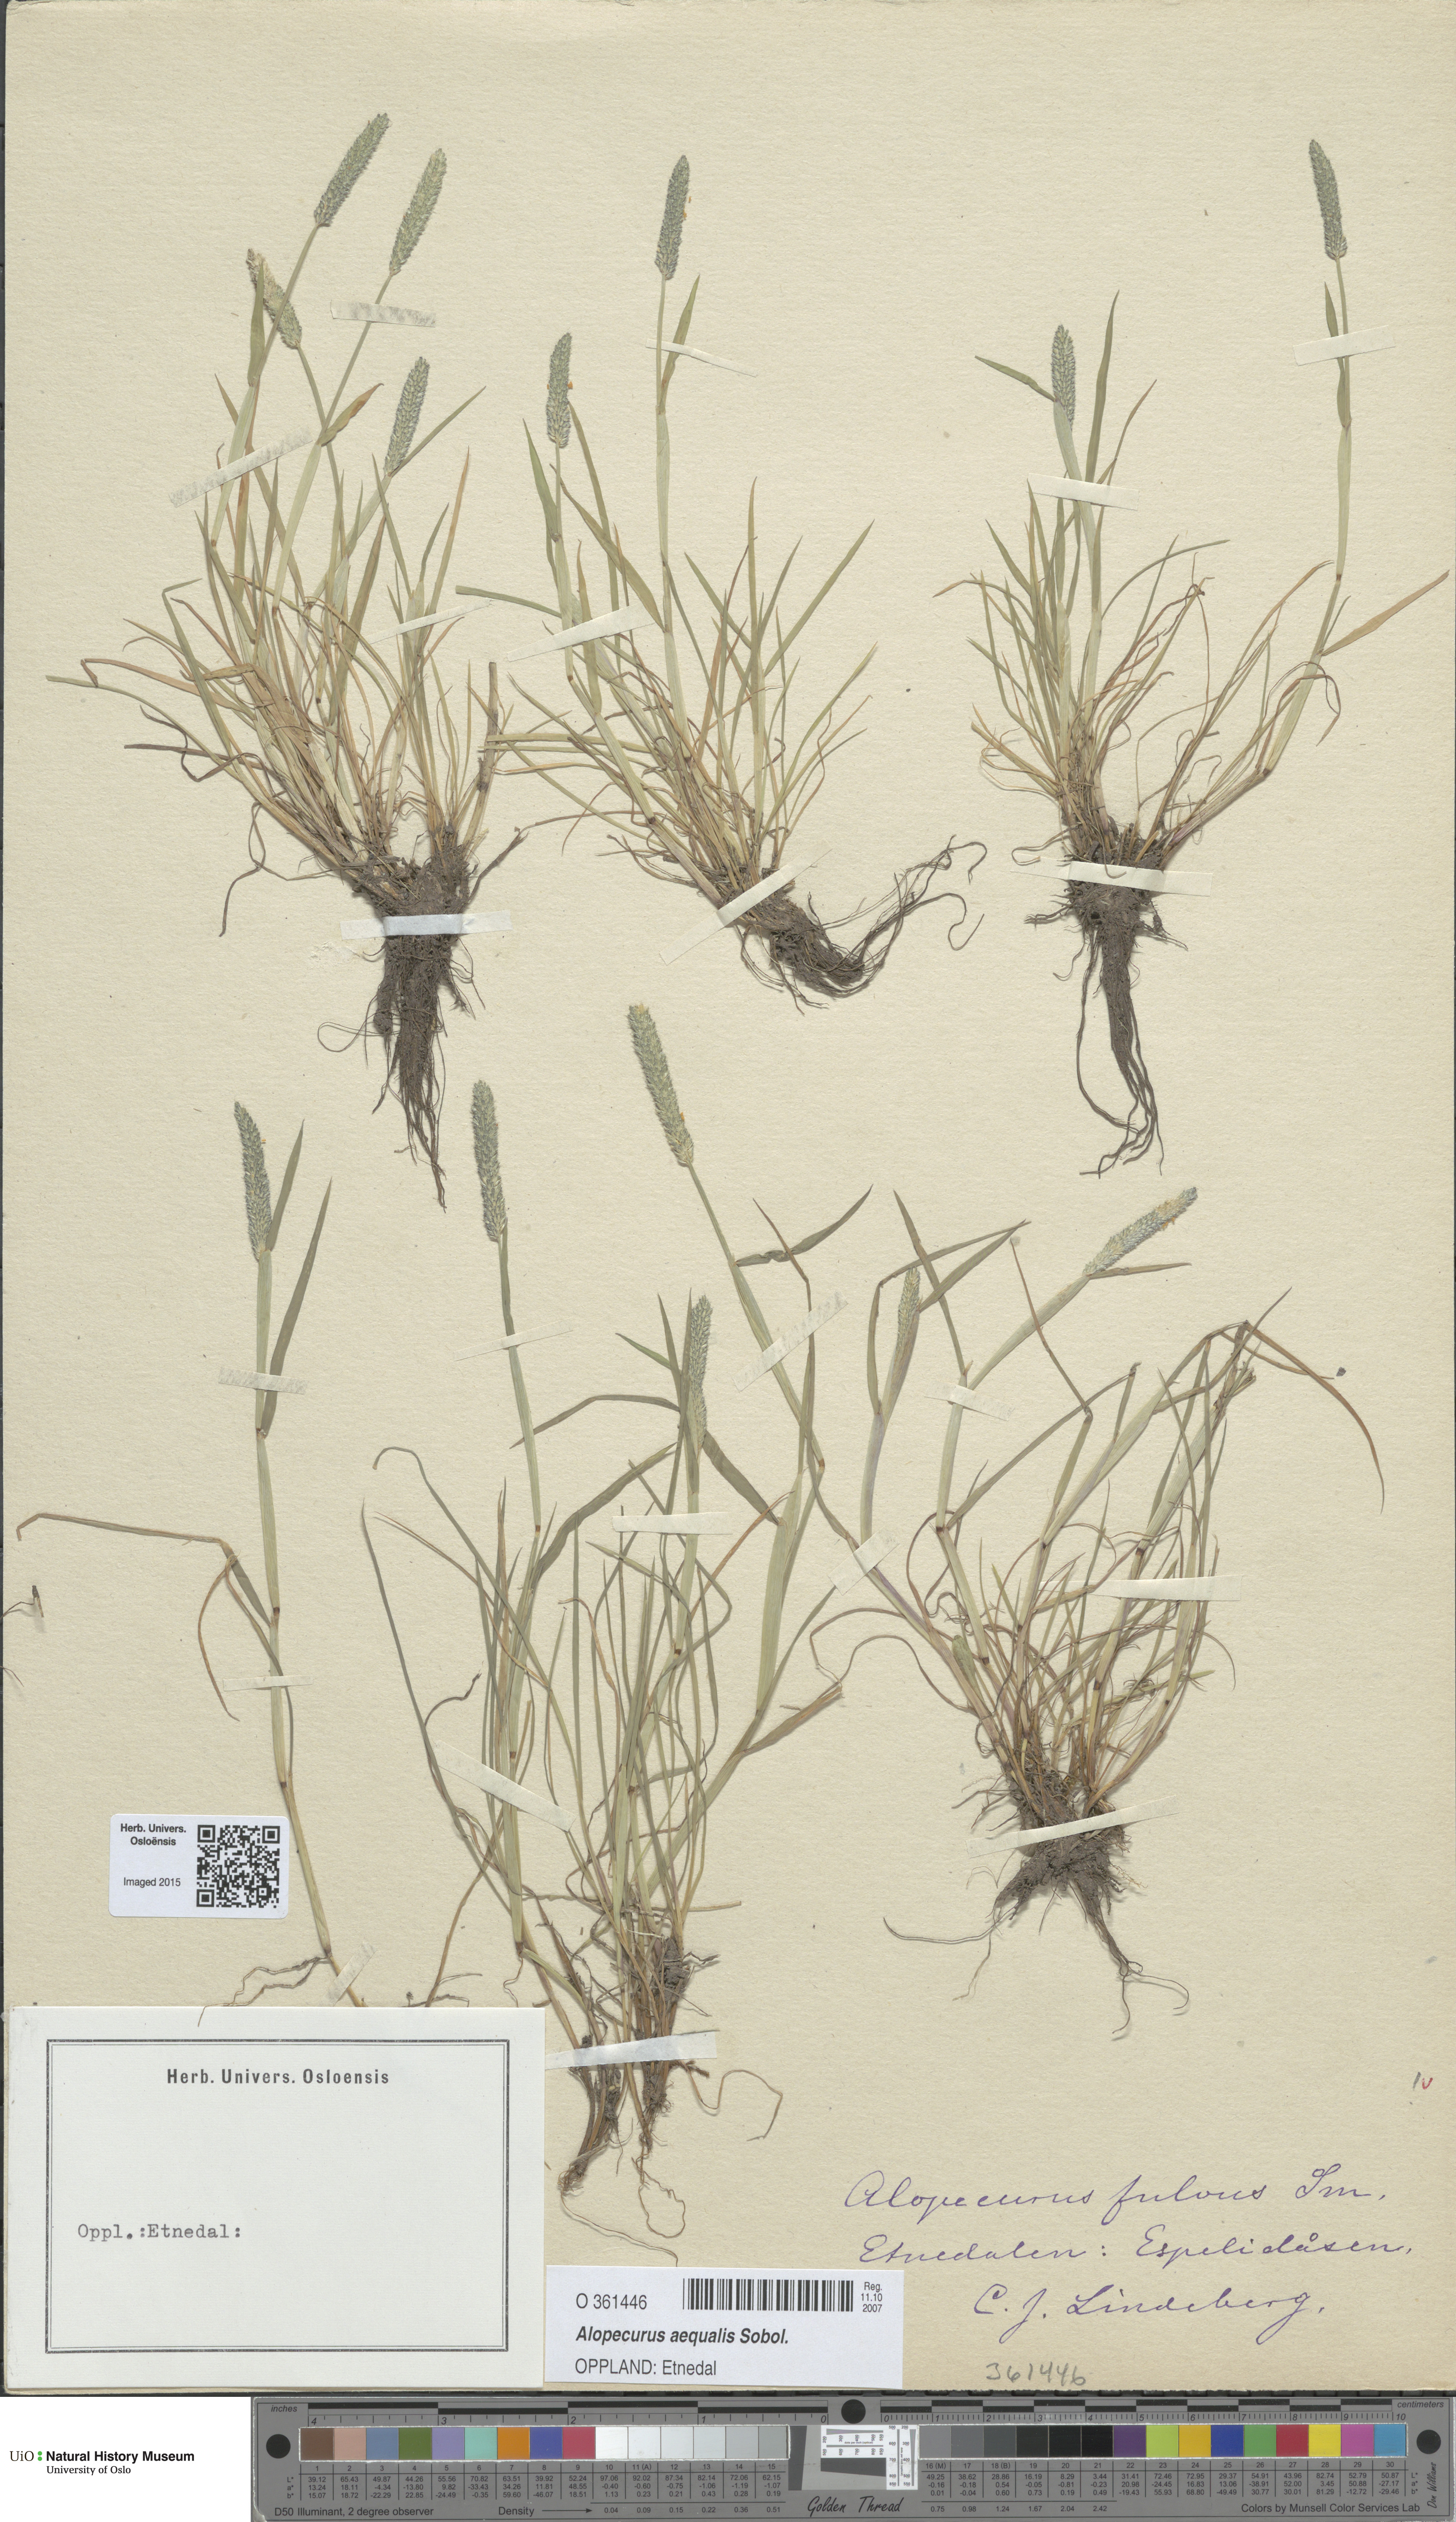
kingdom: Plantae
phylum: Tracheophyta
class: Liliopsida
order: Poales
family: Poaceae
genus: Alopecurus
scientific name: Alopecurus aequalis
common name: Orange foxtail
